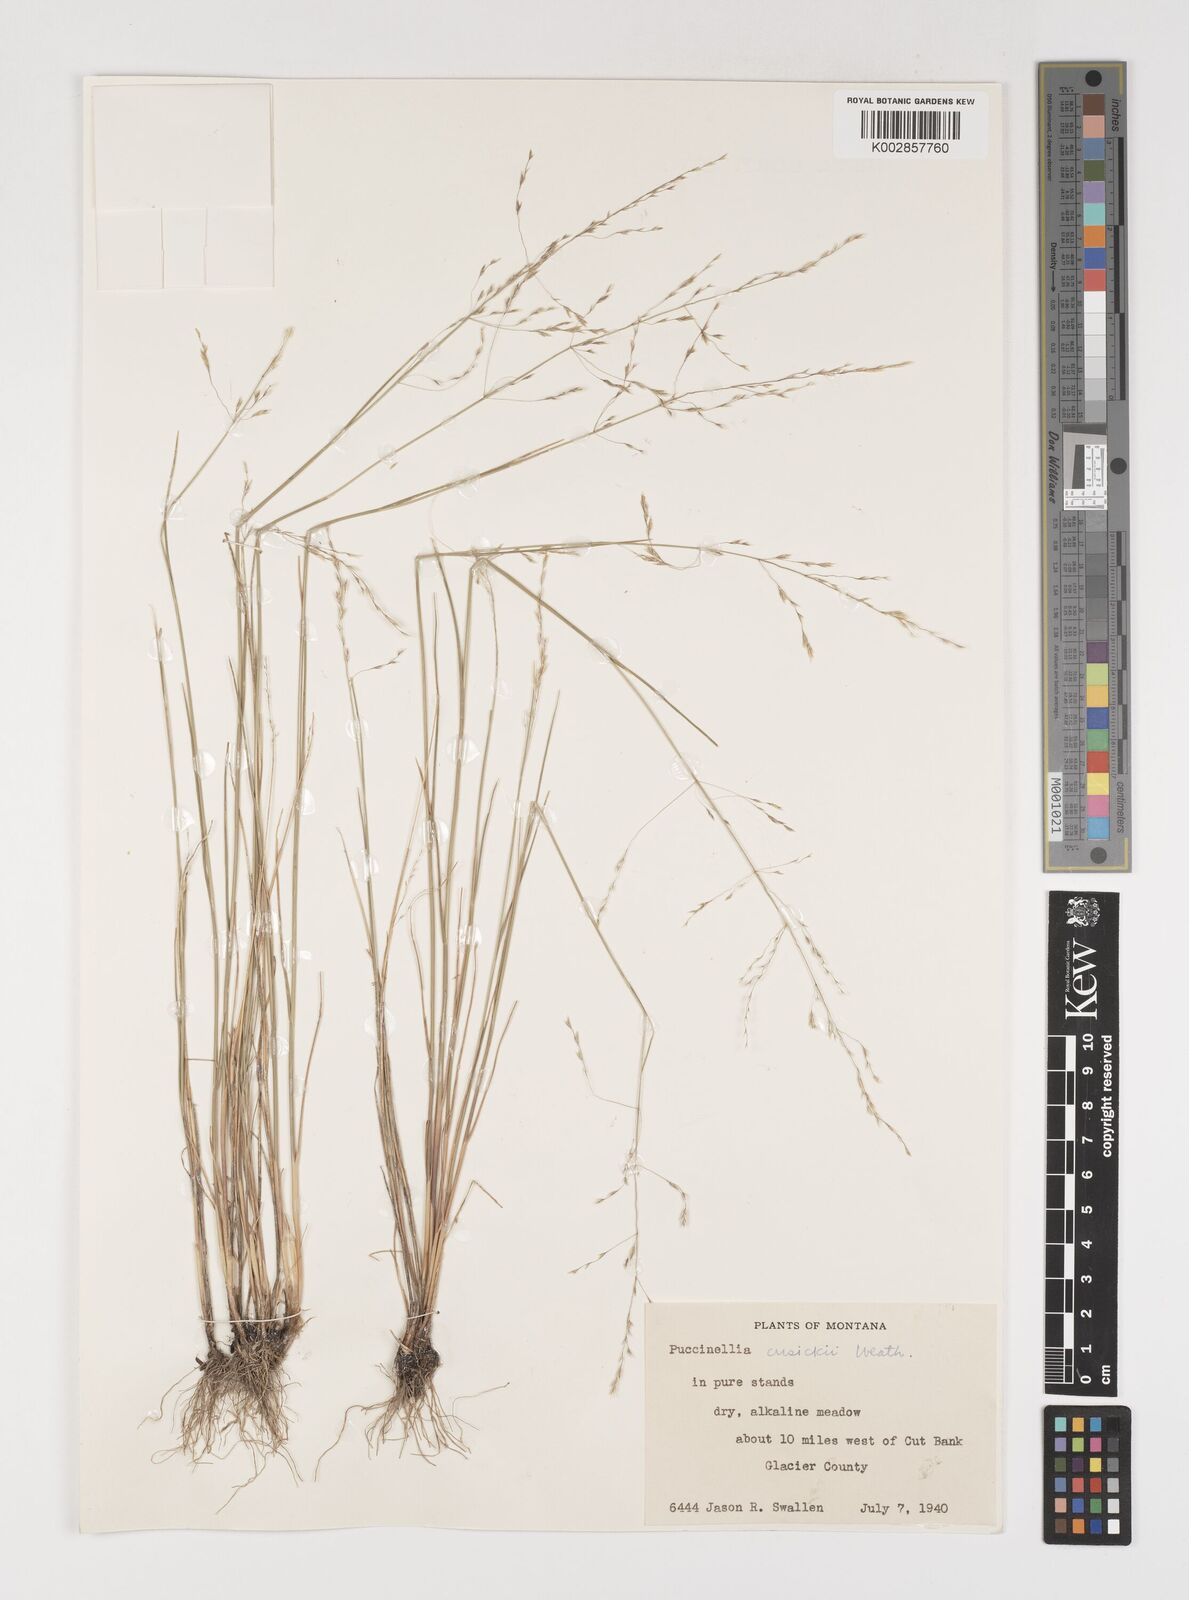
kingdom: Plantae
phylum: Tracheophyta
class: Liliopsida
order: Poales
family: Poaceae
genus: Puccinellia
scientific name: Puccinellia nuttalliana
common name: Nuttall's alkali grass
